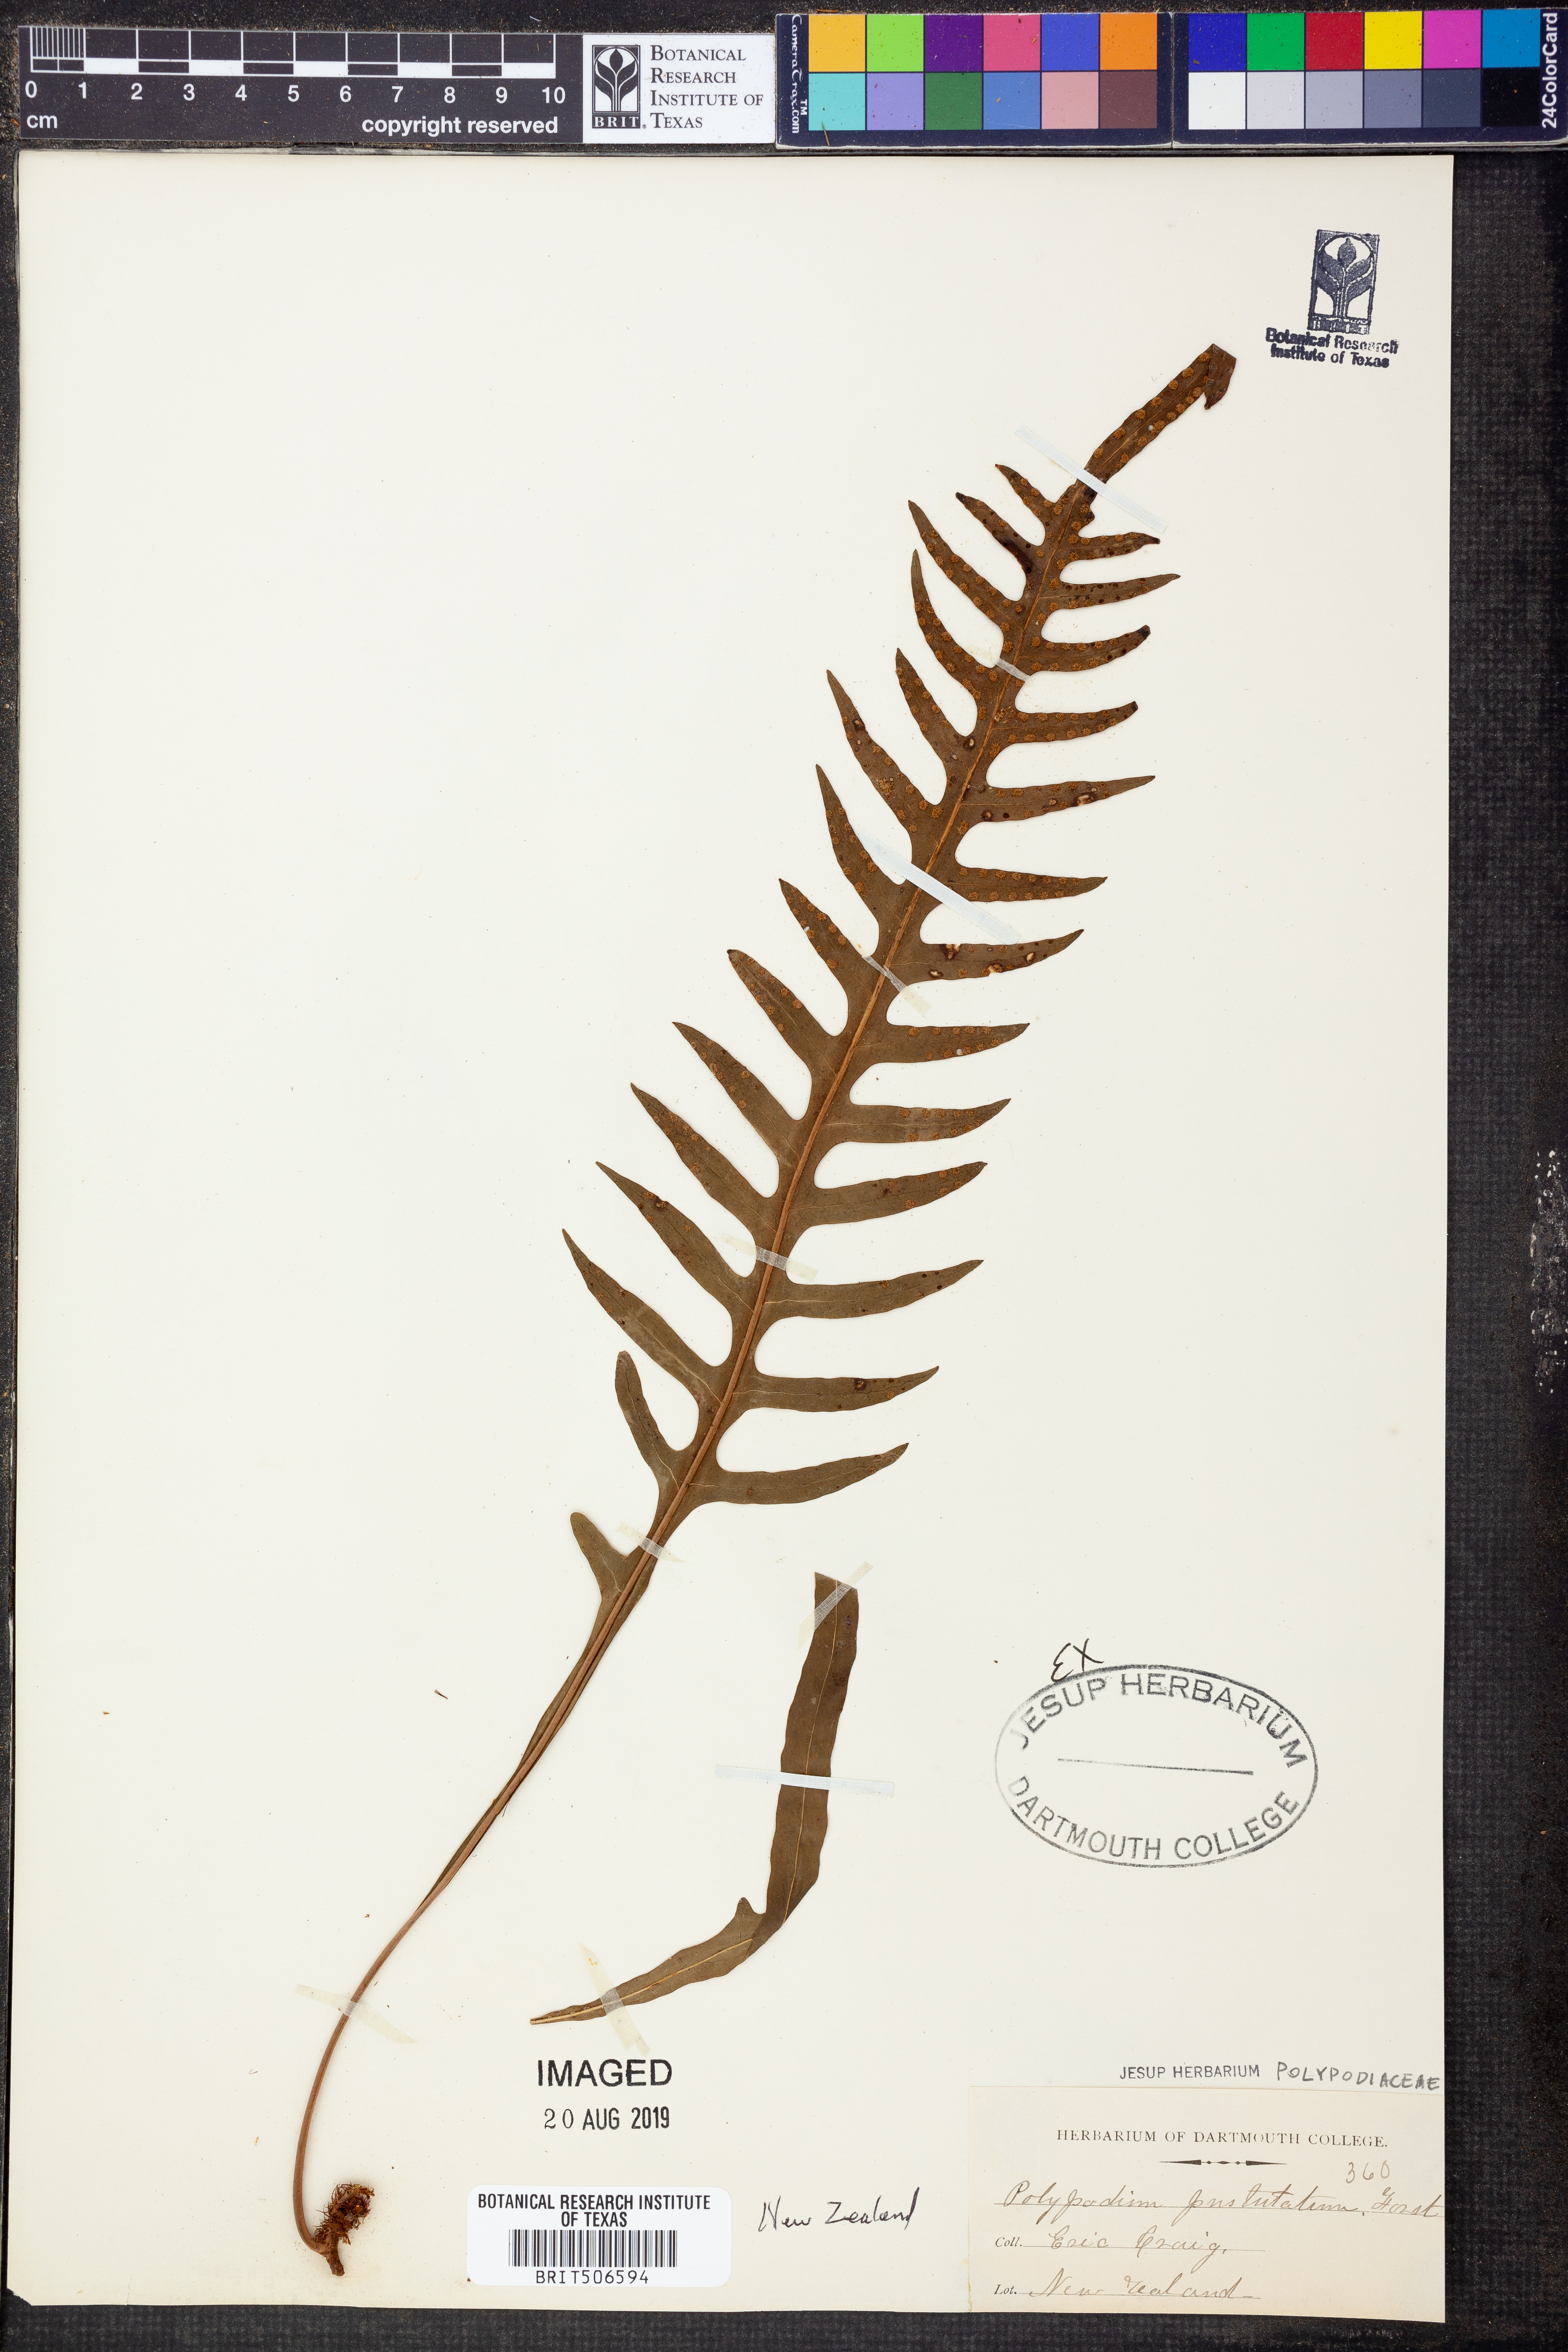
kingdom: Plantae
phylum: Tracheophyta
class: Polypodiopsida
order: Polypodiales
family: Polypodiaceae
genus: Lecanopteris
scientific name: Lecanopteris pustulata
